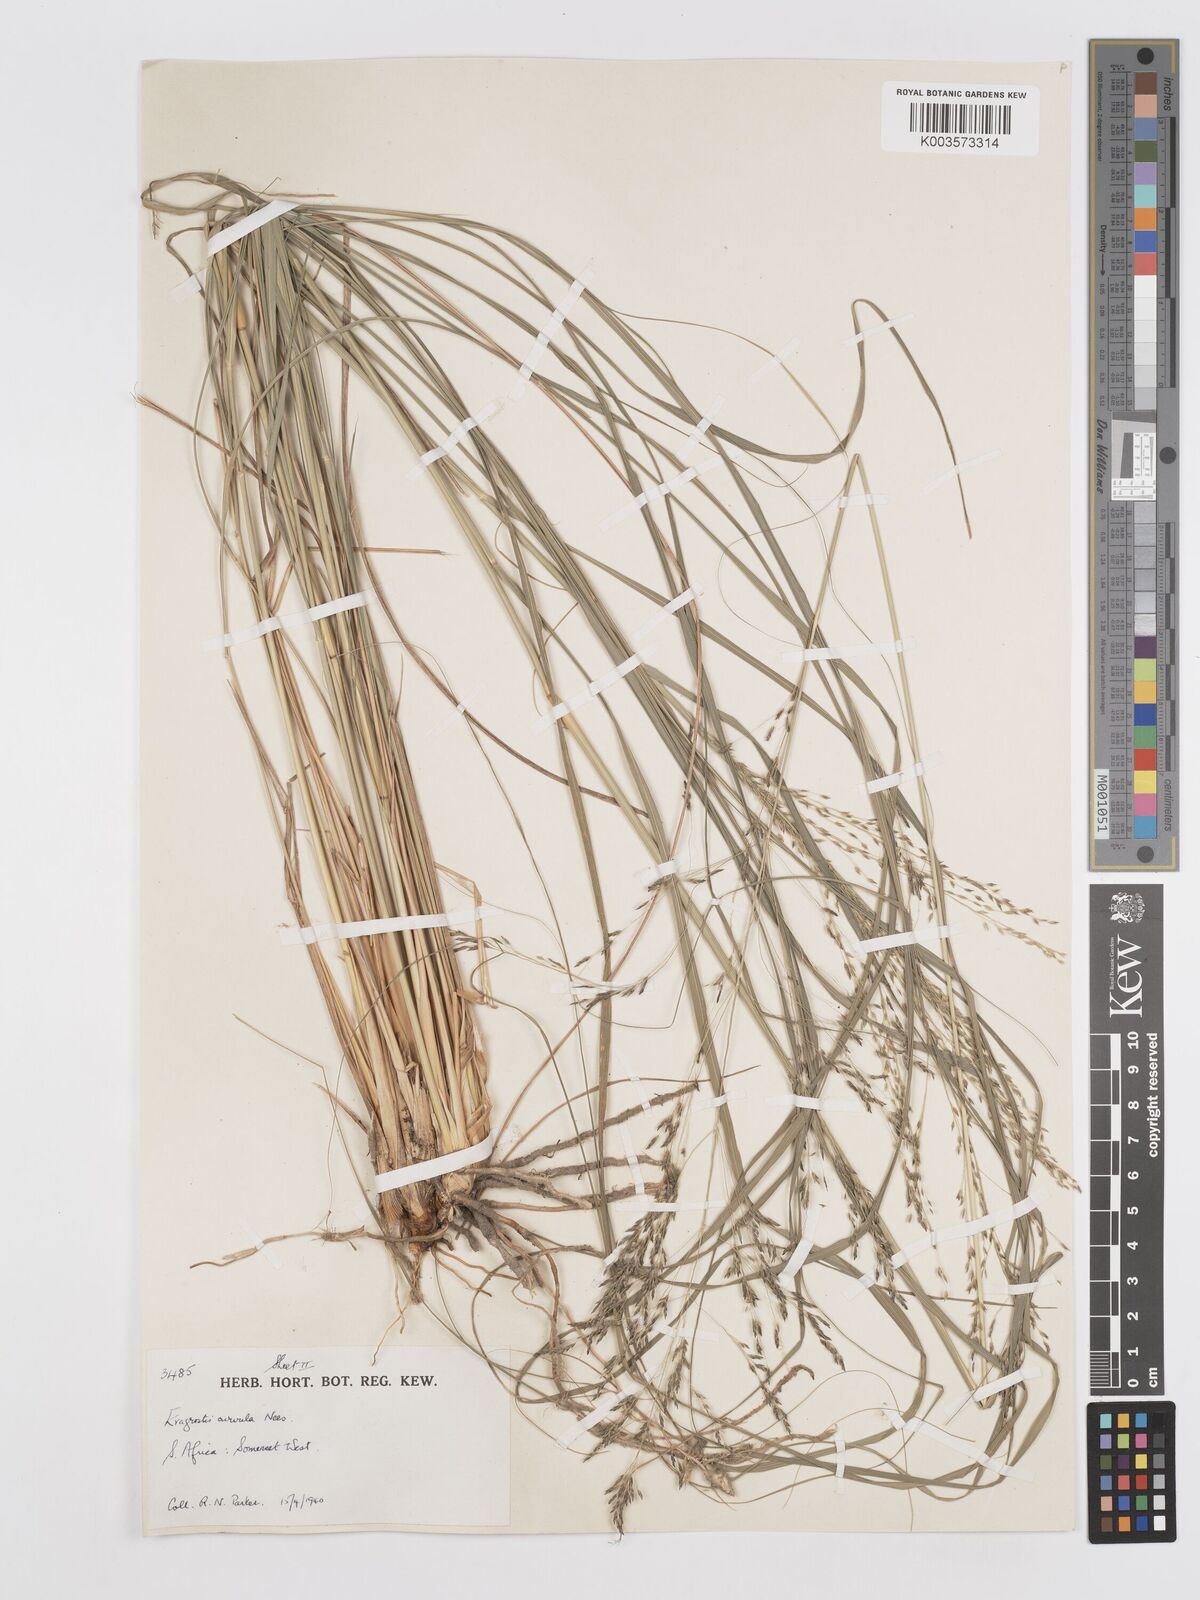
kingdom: Plantae
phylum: Tracheophyta
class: Liliopsida
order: Poales
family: Poaceae
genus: Eragrostis
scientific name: Eragrostis curvula
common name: African love-grass
